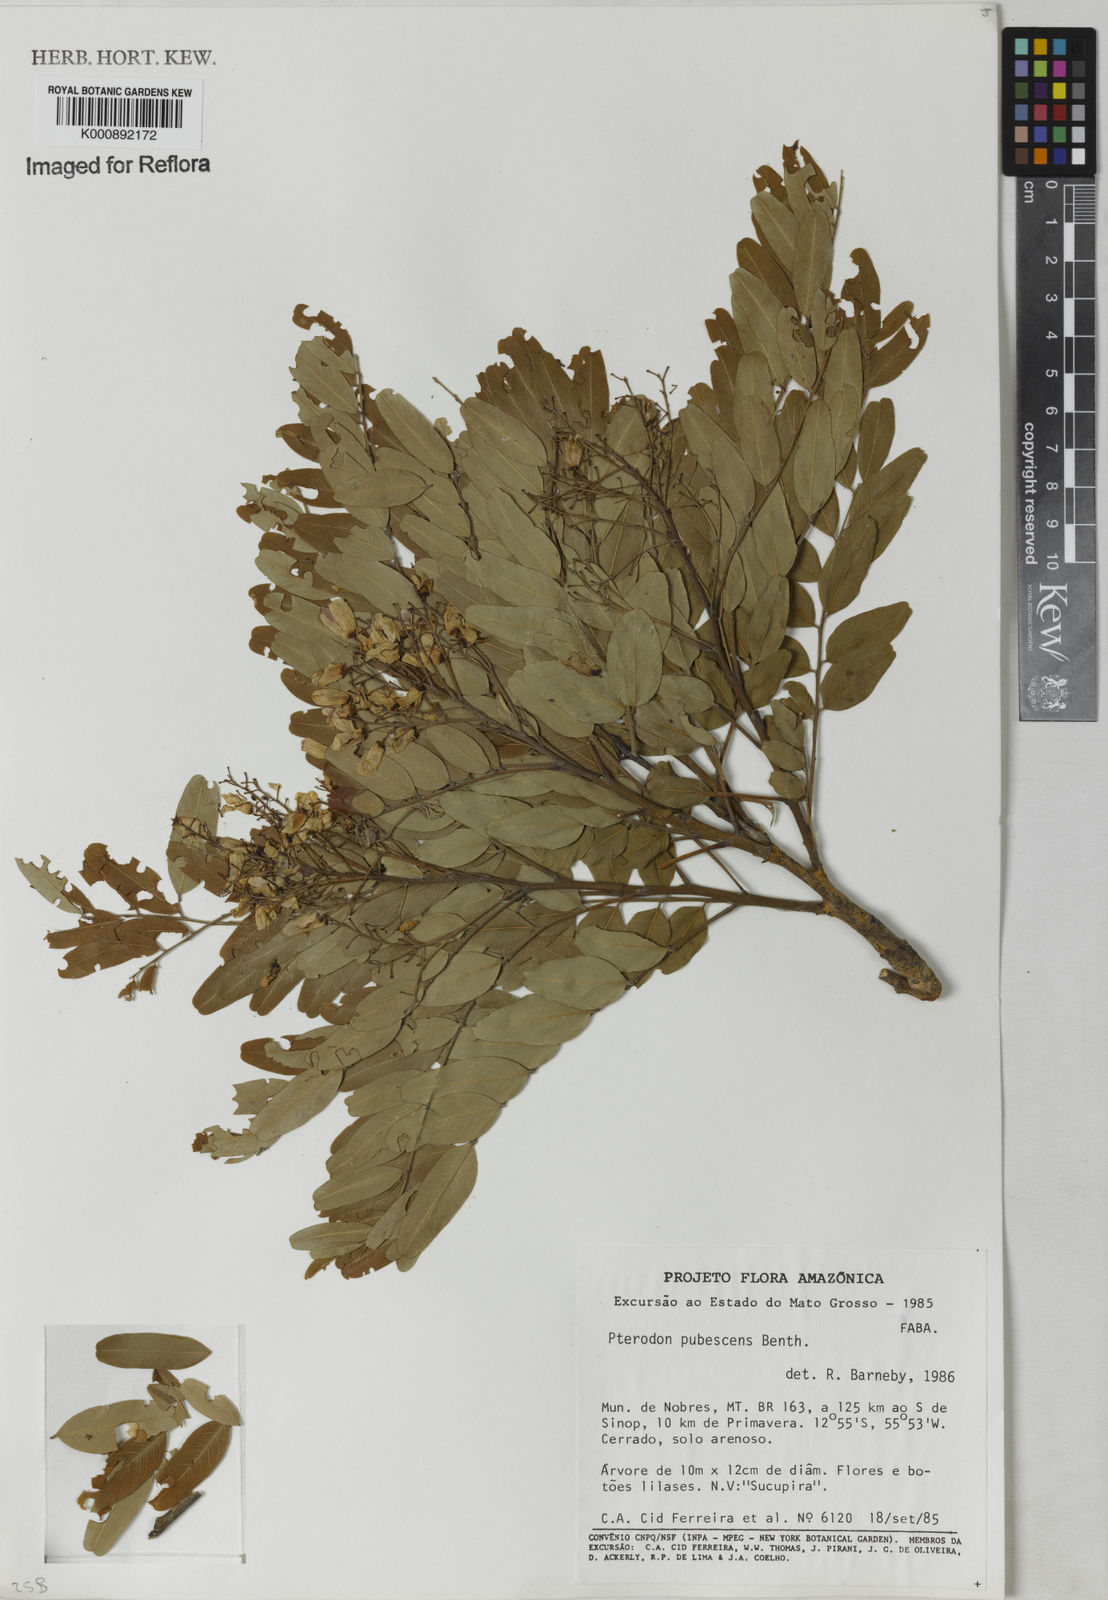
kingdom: Plantae
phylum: Tracheophyta
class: Magnoliopsida
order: Fabales
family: Fabaceae
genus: Pterodon
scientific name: Pterodon emarginatus
